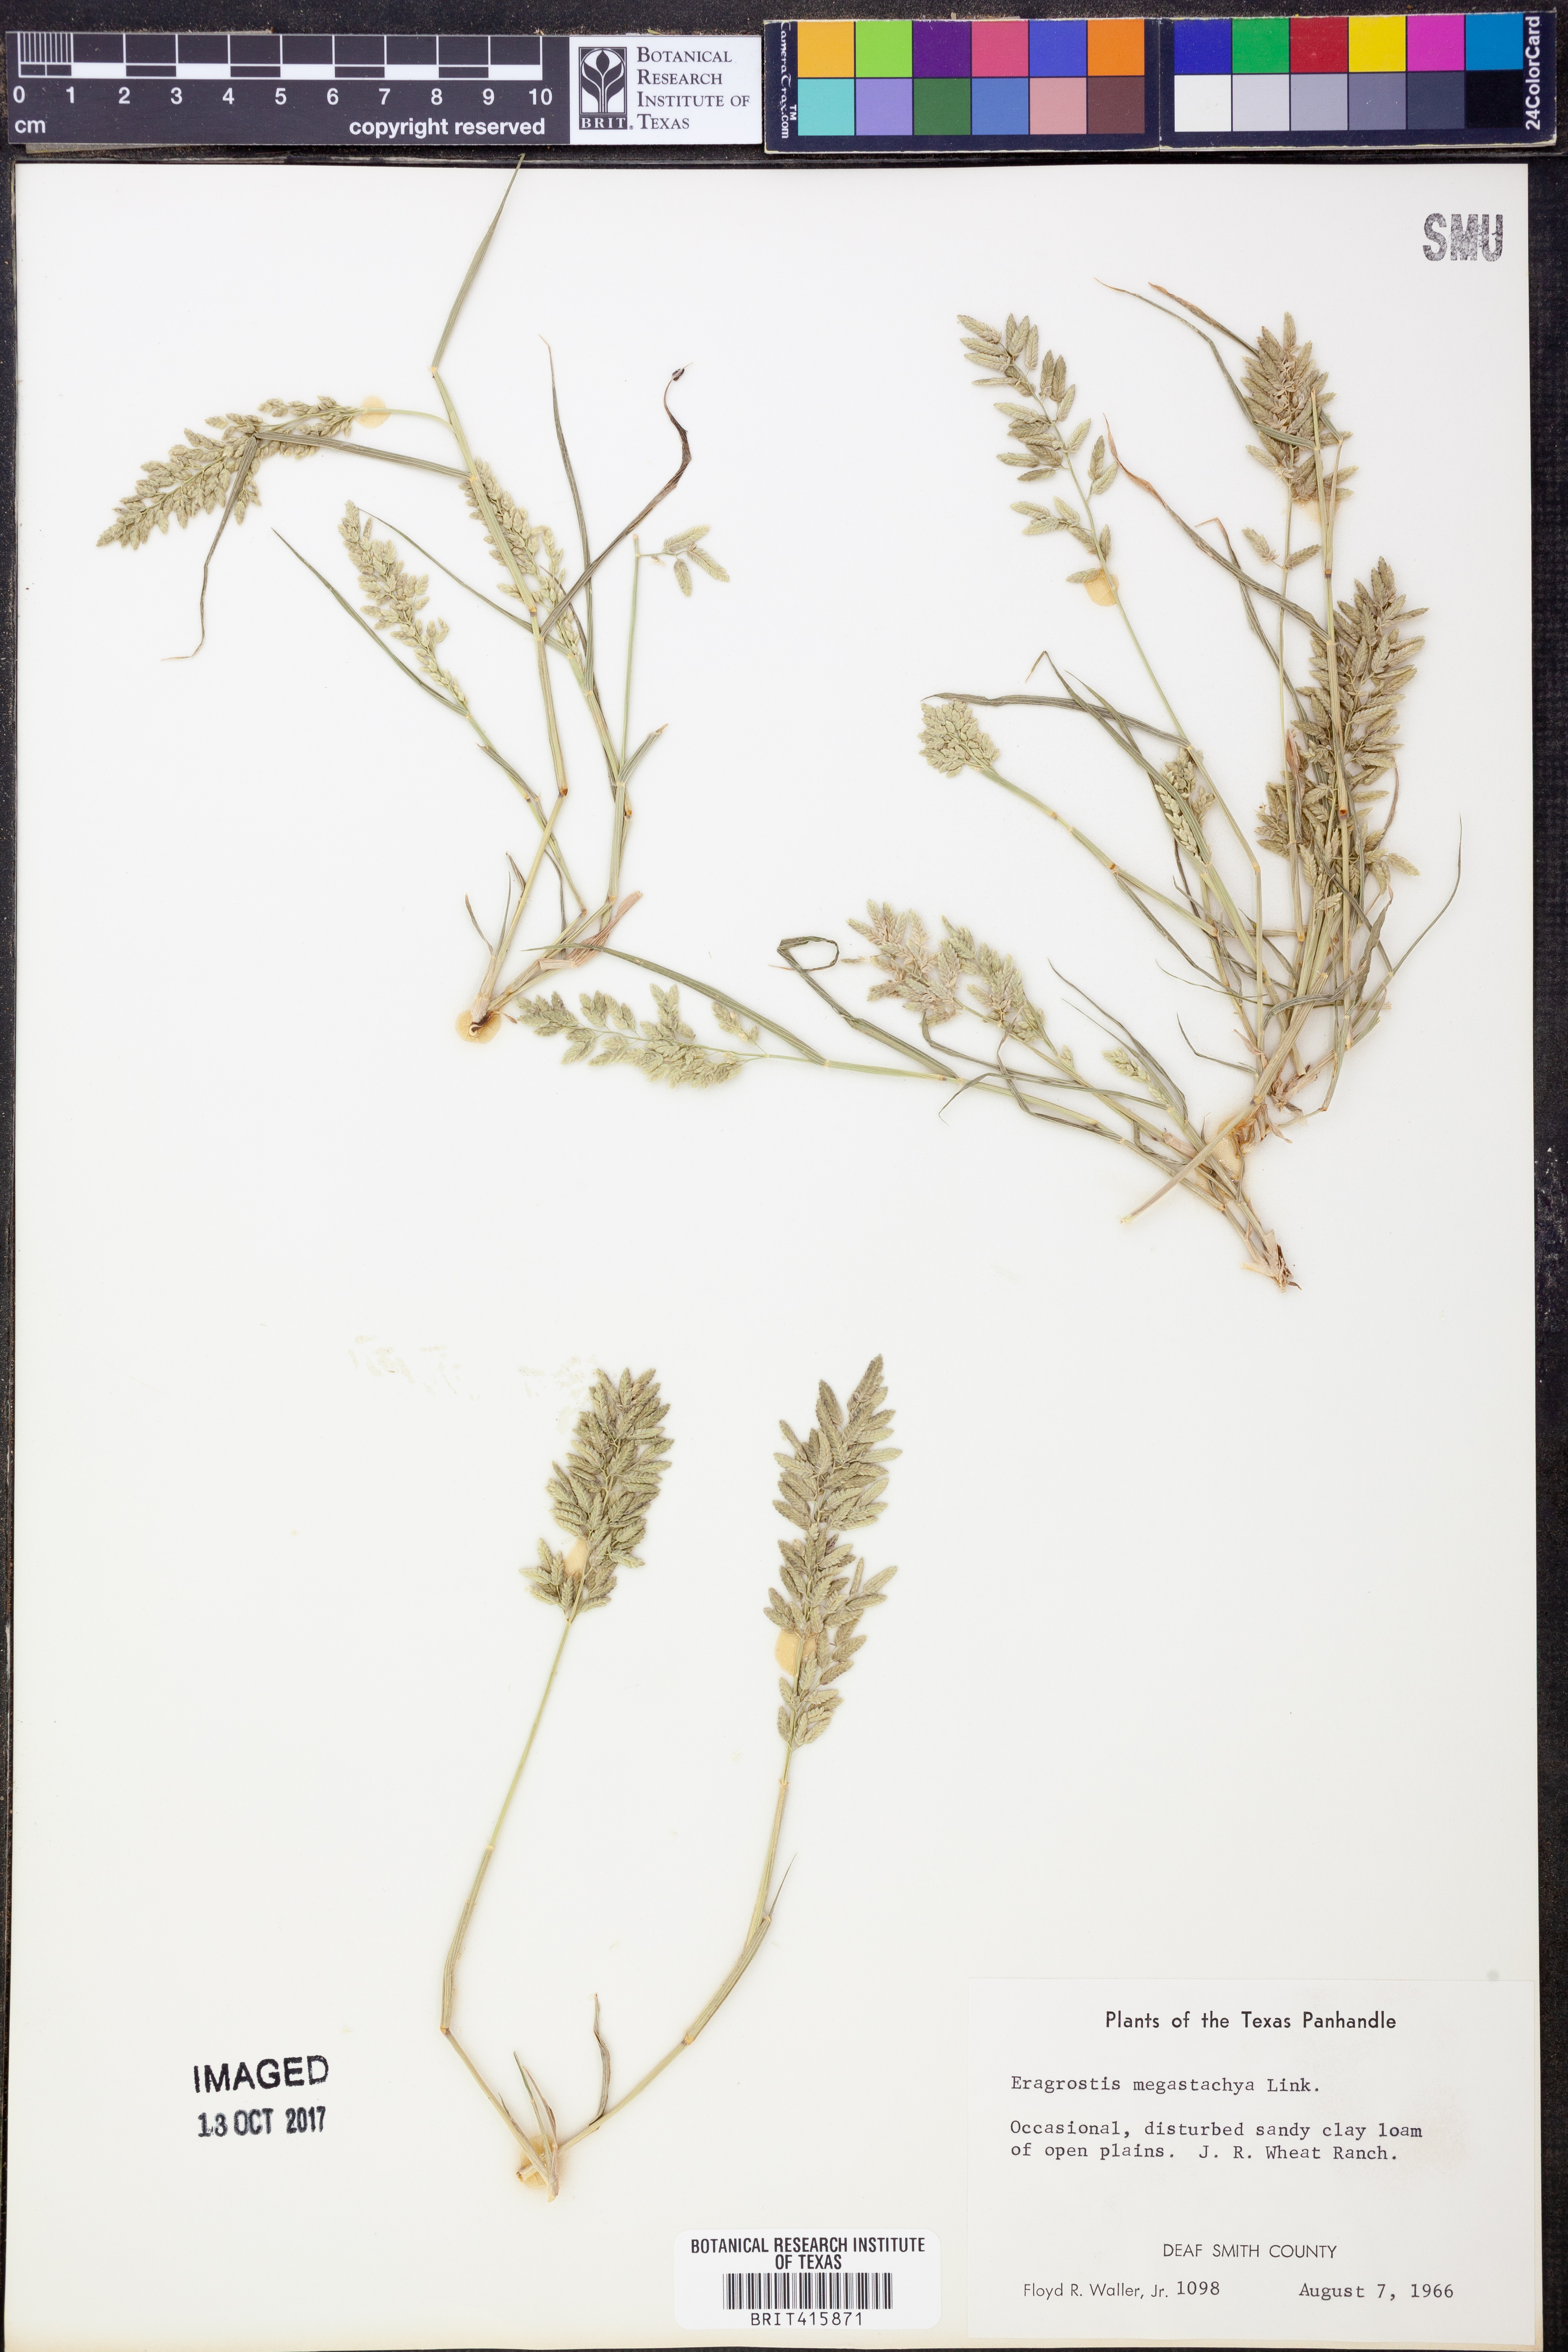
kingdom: Plantae
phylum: Tracheophyta
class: Liliopsida
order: Poales
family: Poaceae
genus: Eragrostis
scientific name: Eragrostis cilianensis
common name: Stinkgrass
